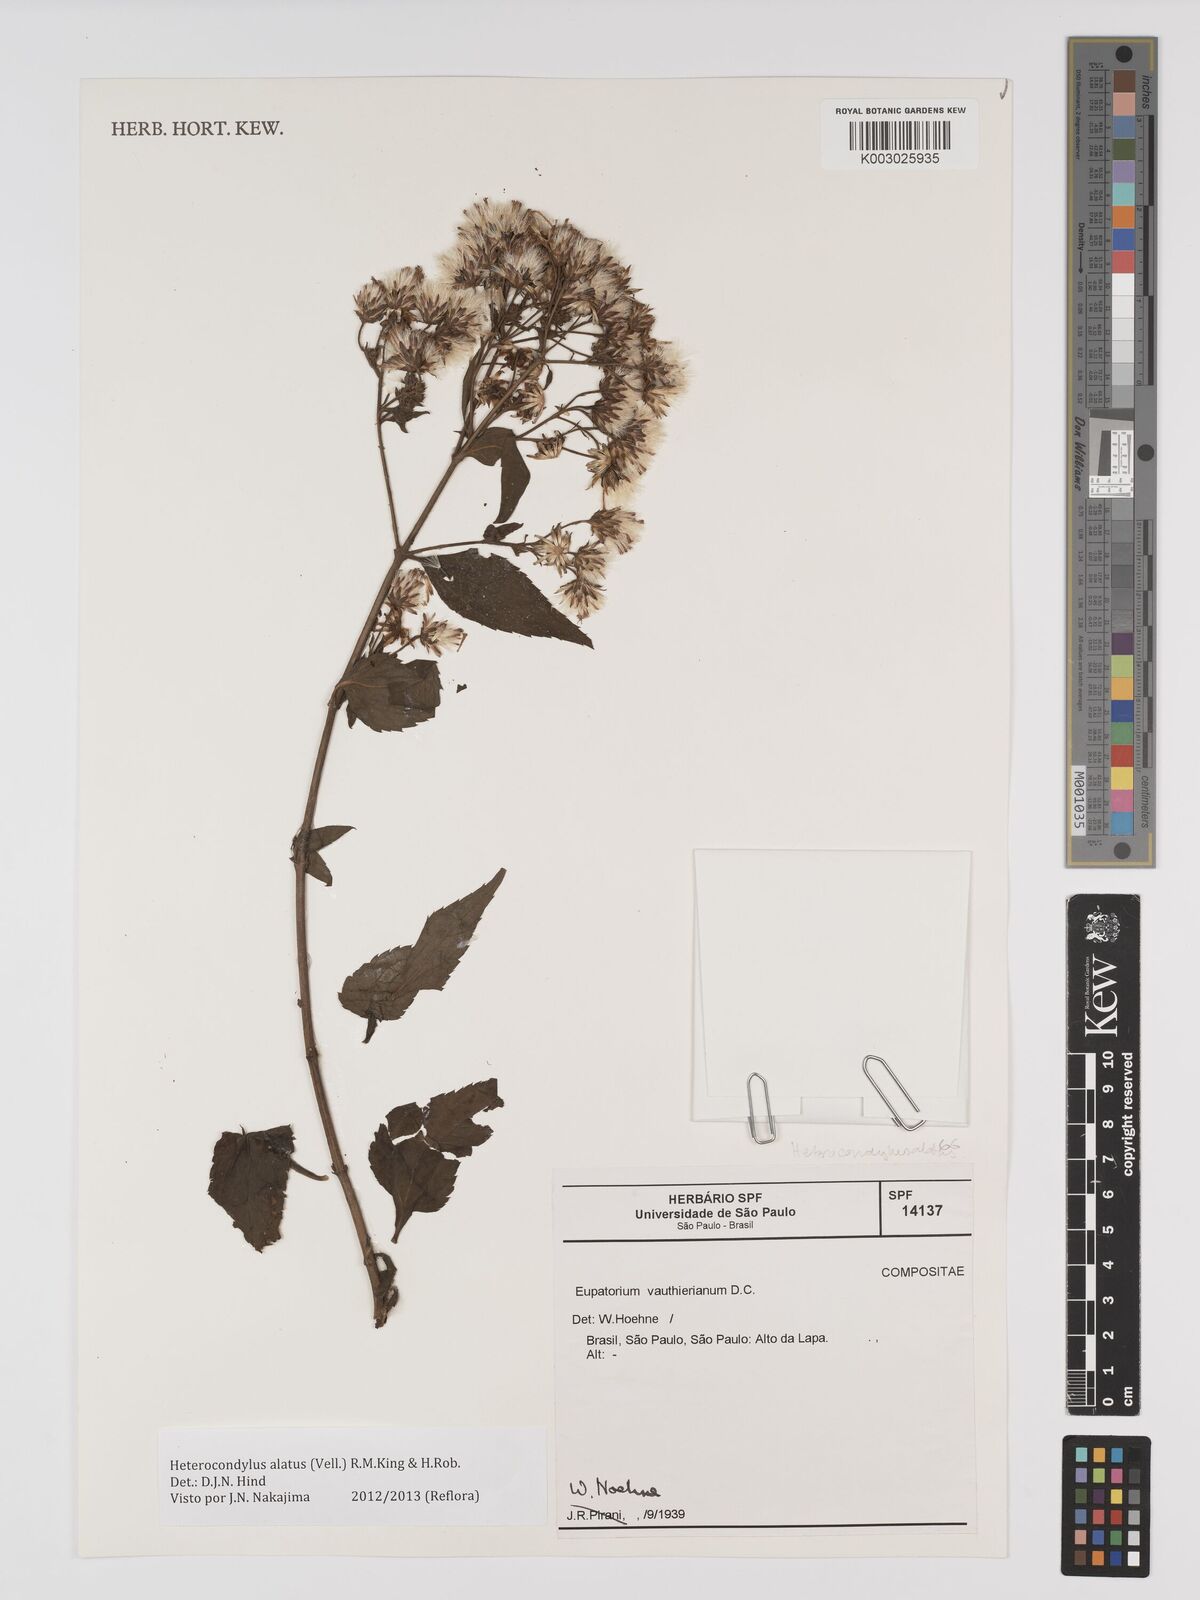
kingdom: Plantae
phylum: Tracheophyta
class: Magnoliopsida
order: Asterales
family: Asteraceae
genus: Heterocondylus
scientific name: Heterocondylus alatus
